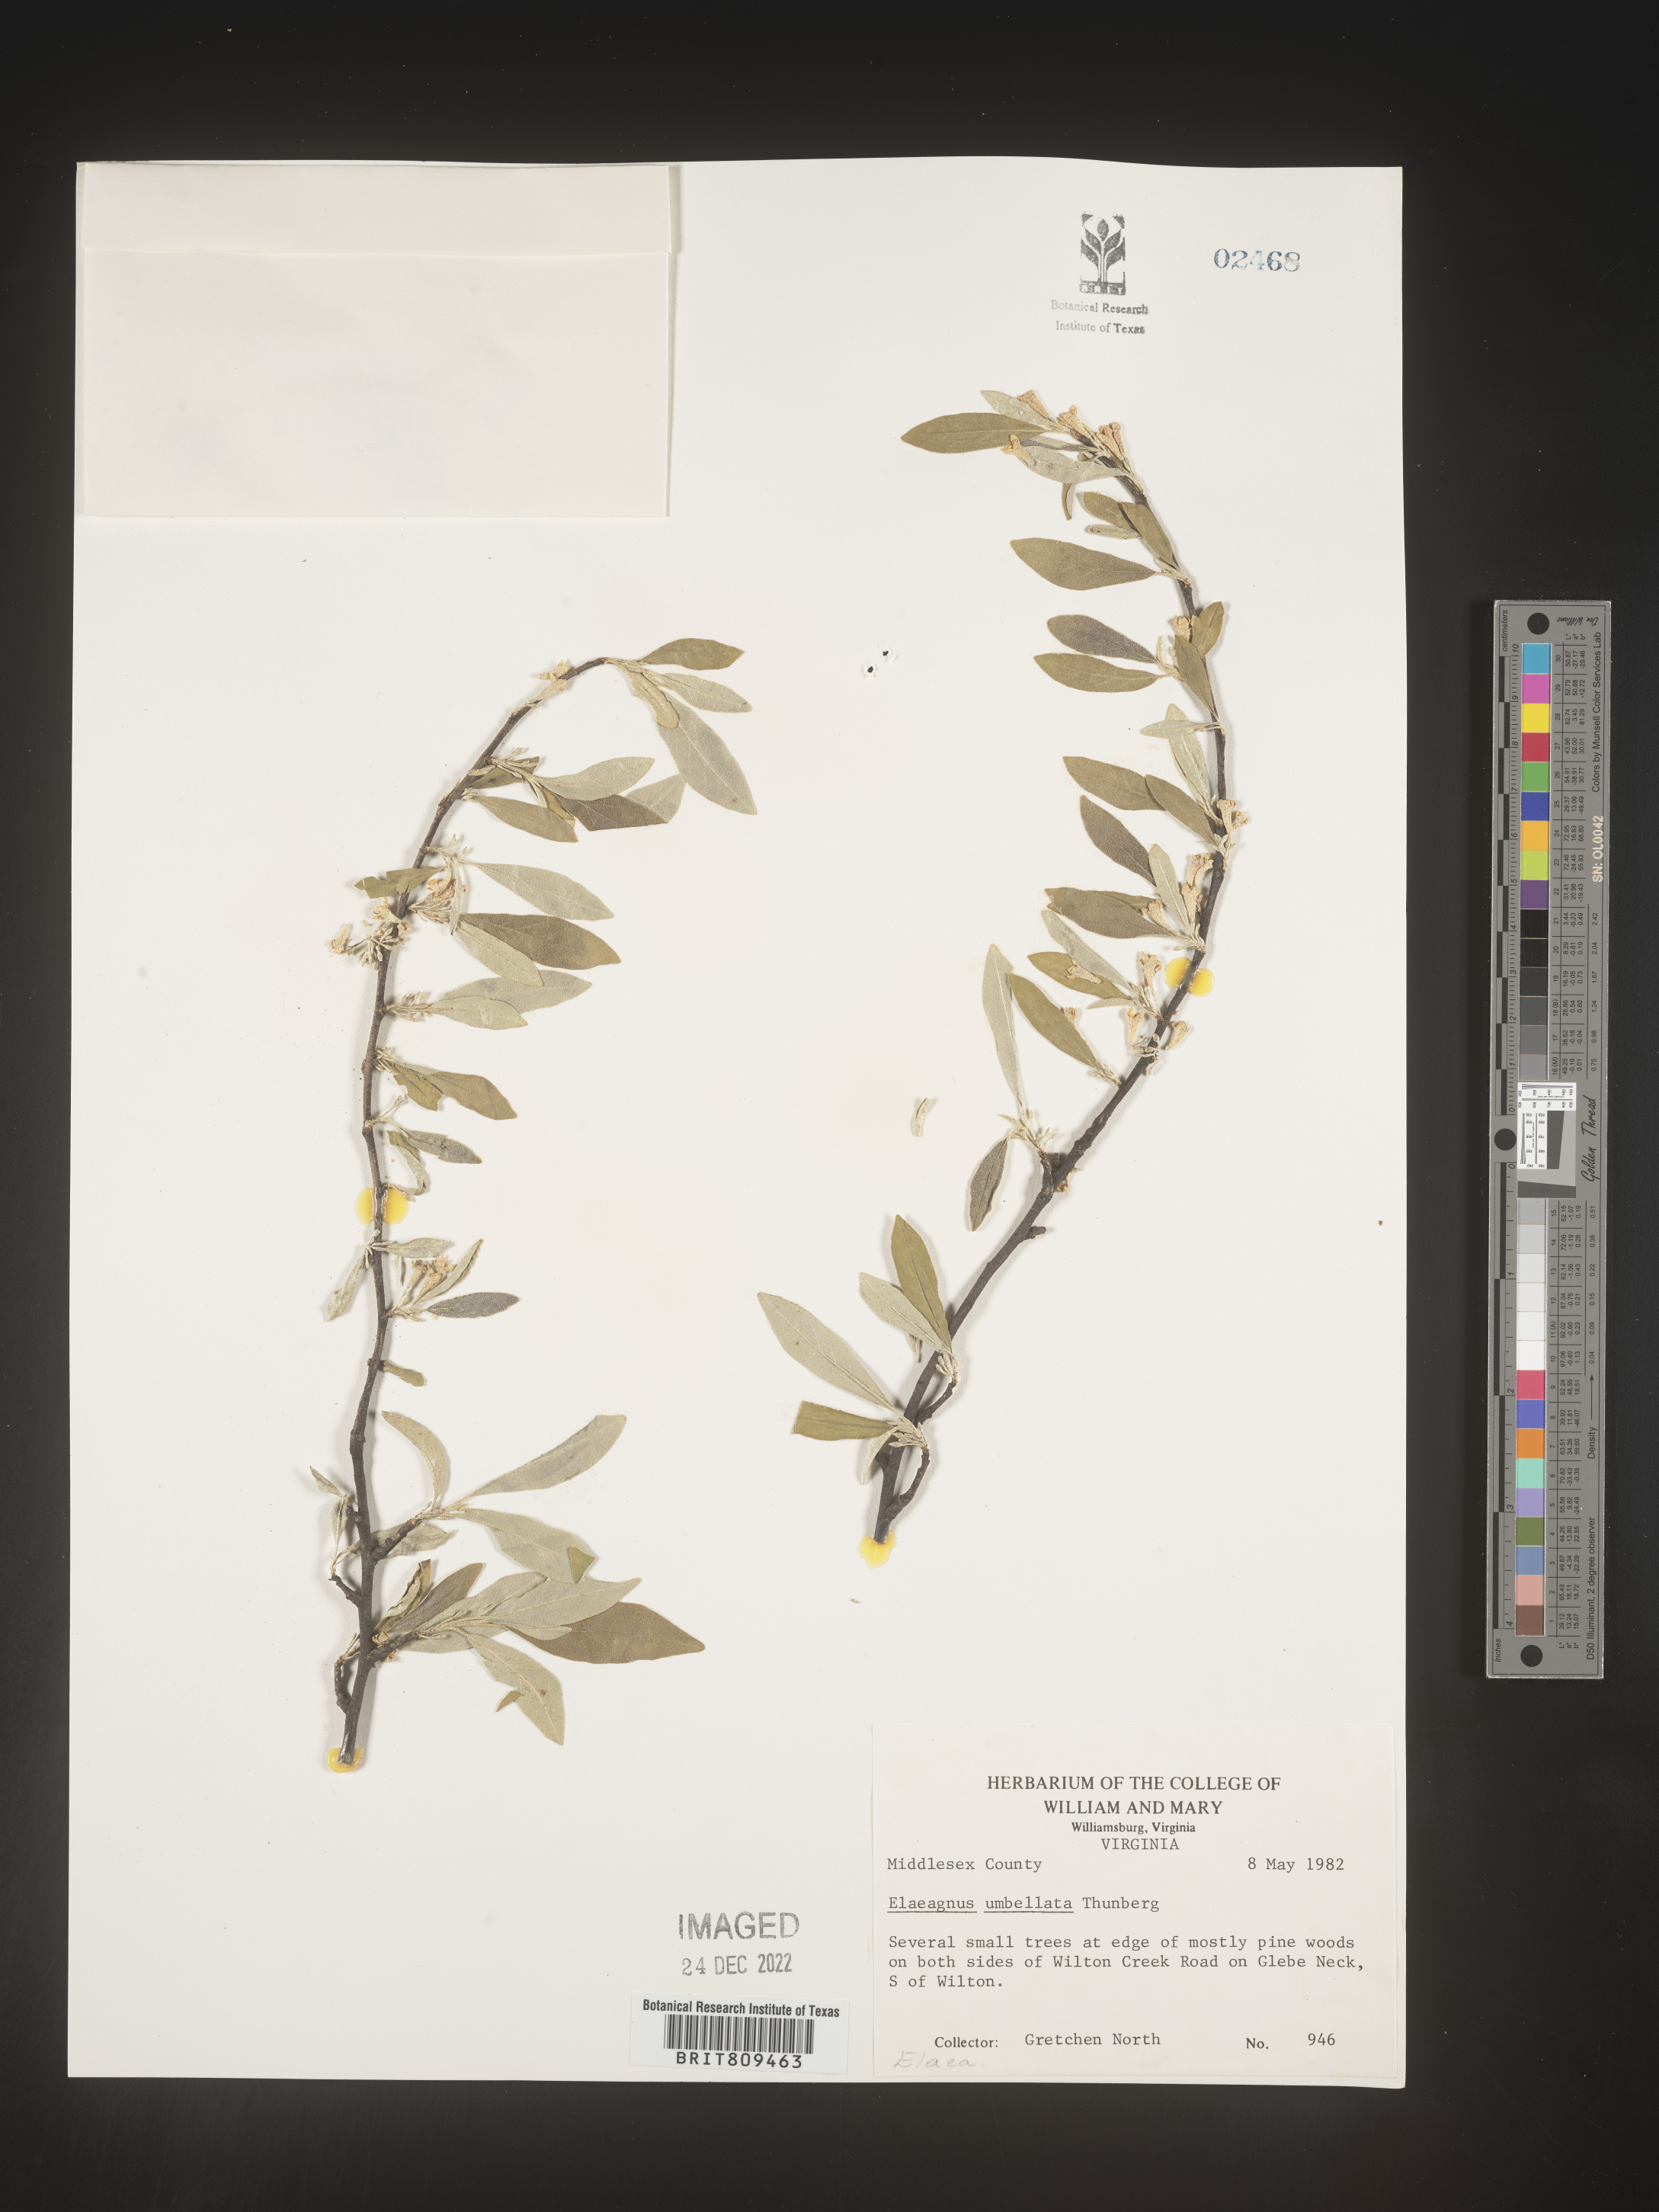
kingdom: Plantae
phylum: Tracheophyta
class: Magnoliopsida
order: Rosales
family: Elaeagnaceae
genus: Elaeagnus
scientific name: Elaeagnus
